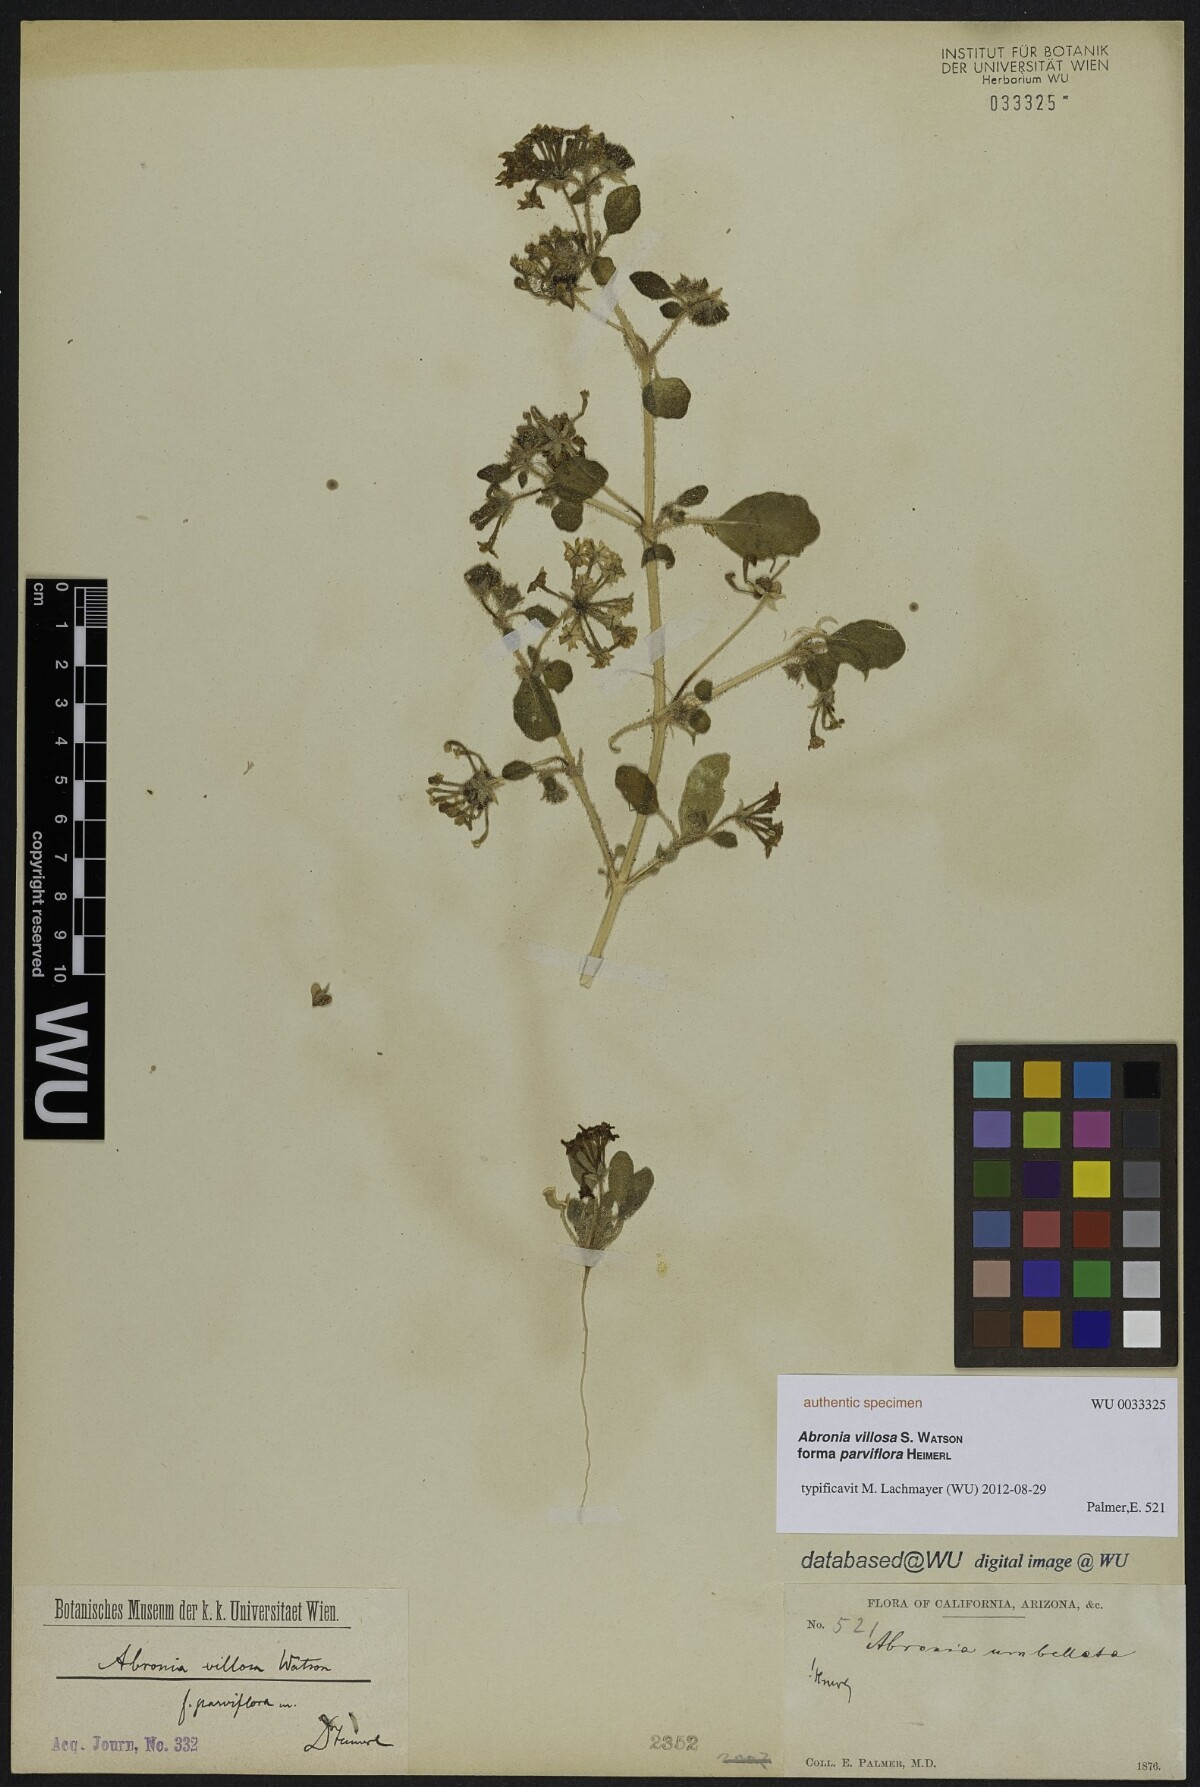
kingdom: Plantae
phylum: Tracheophyta
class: Magnoliopsida
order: Caryophyllales
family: Nyctaginaceae
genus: Abronia
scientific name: Abronia villosa
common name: Desert sand-verbena
